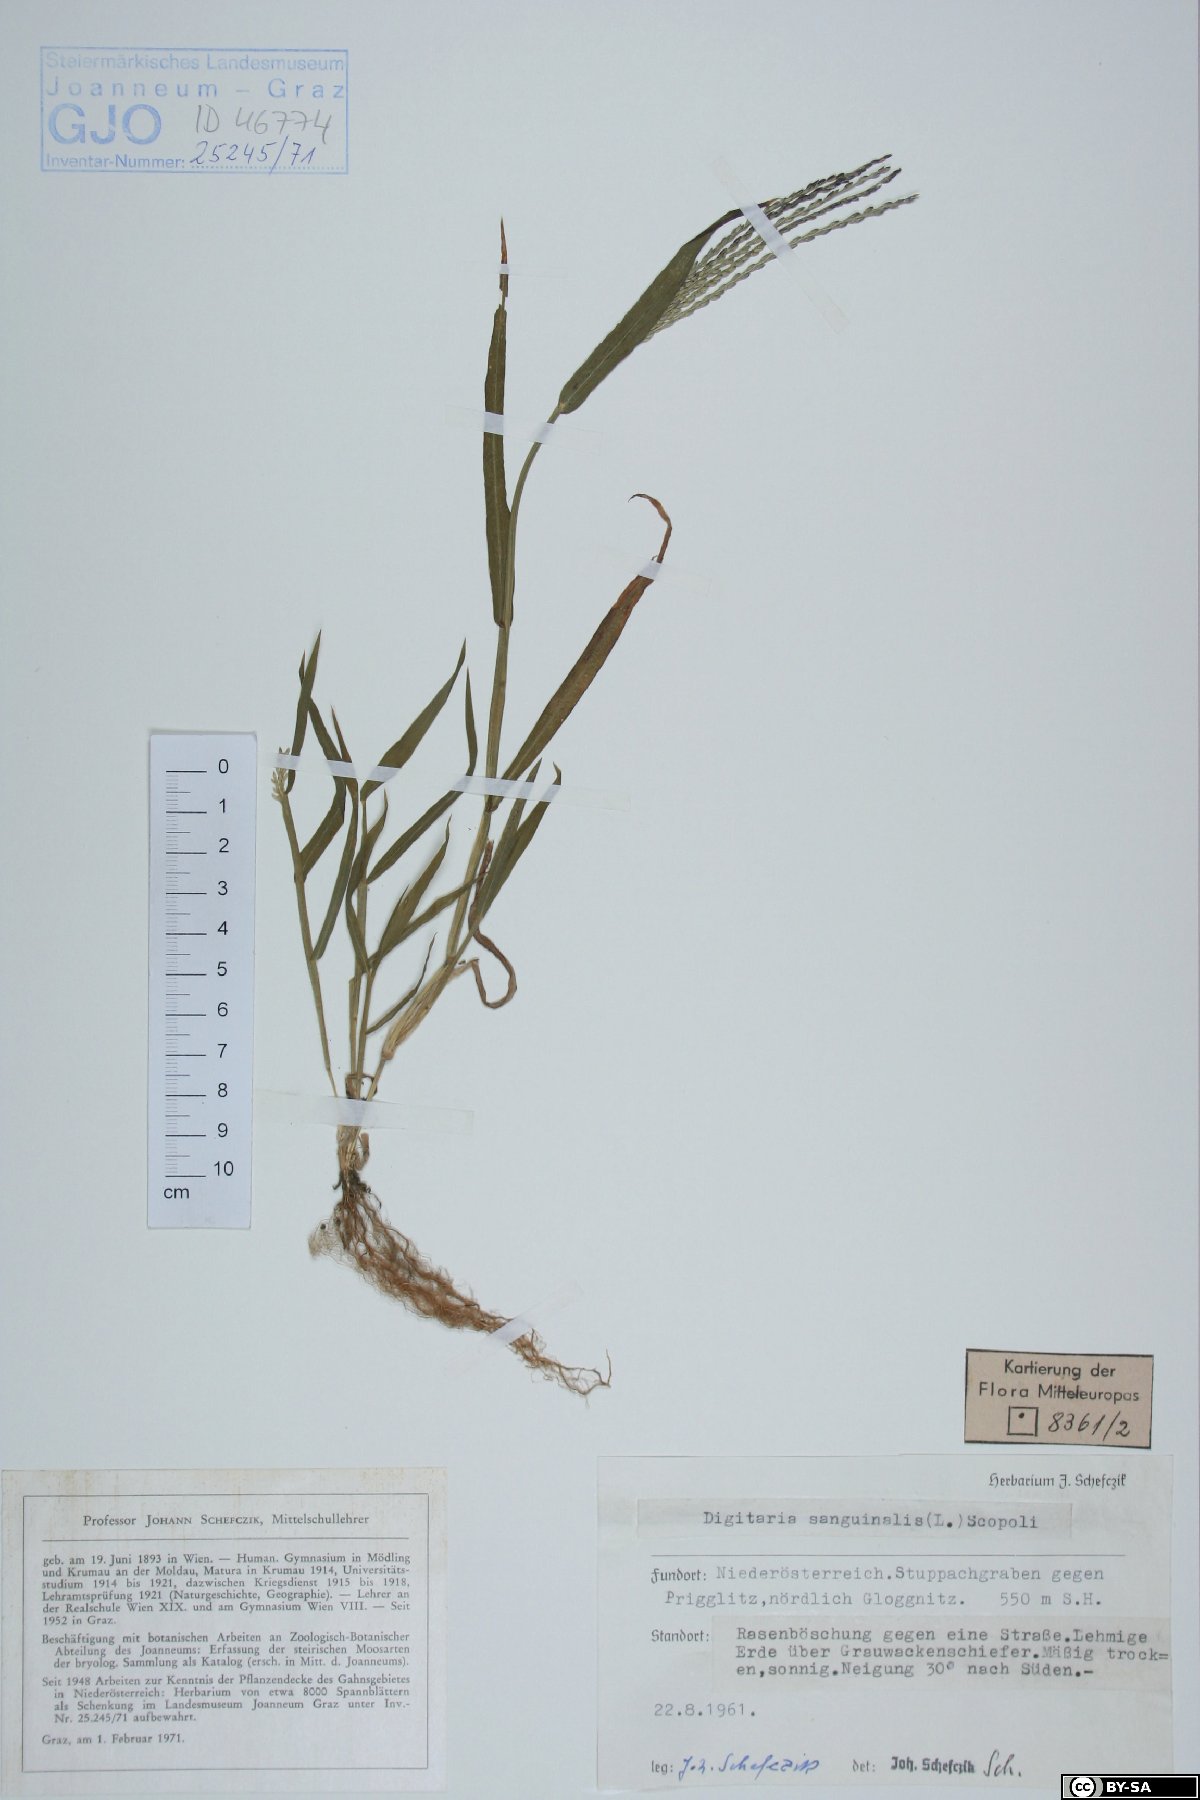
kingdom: Plantae
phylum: Tracheophyta
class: Liliopsida
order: Poales
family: Poaceae
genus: Digitaria
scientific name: Digitaria sanguinalis
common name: Hairy crabgrass
